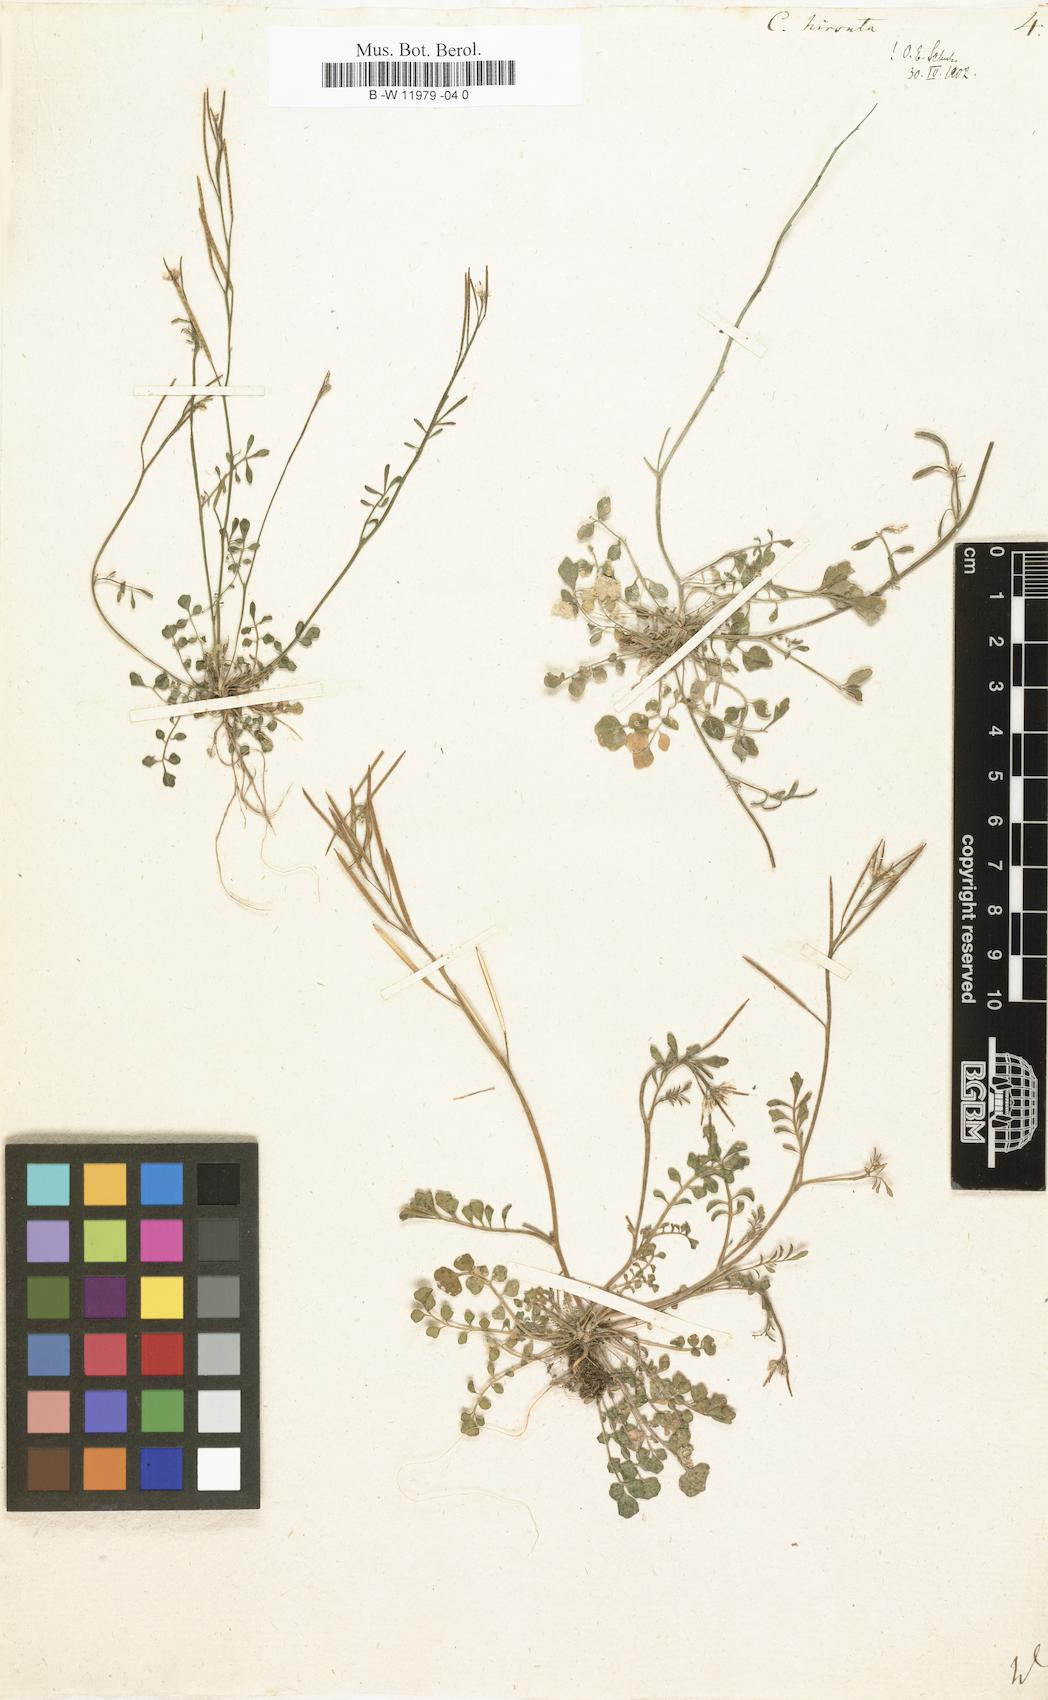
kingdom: Plantae
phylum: Tracheophyta
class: Magnoliopsida
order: Brassicales
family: Brassicaceae
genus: Cardamine
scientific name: Cardamine hirsuta
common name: Hairy bittercress
